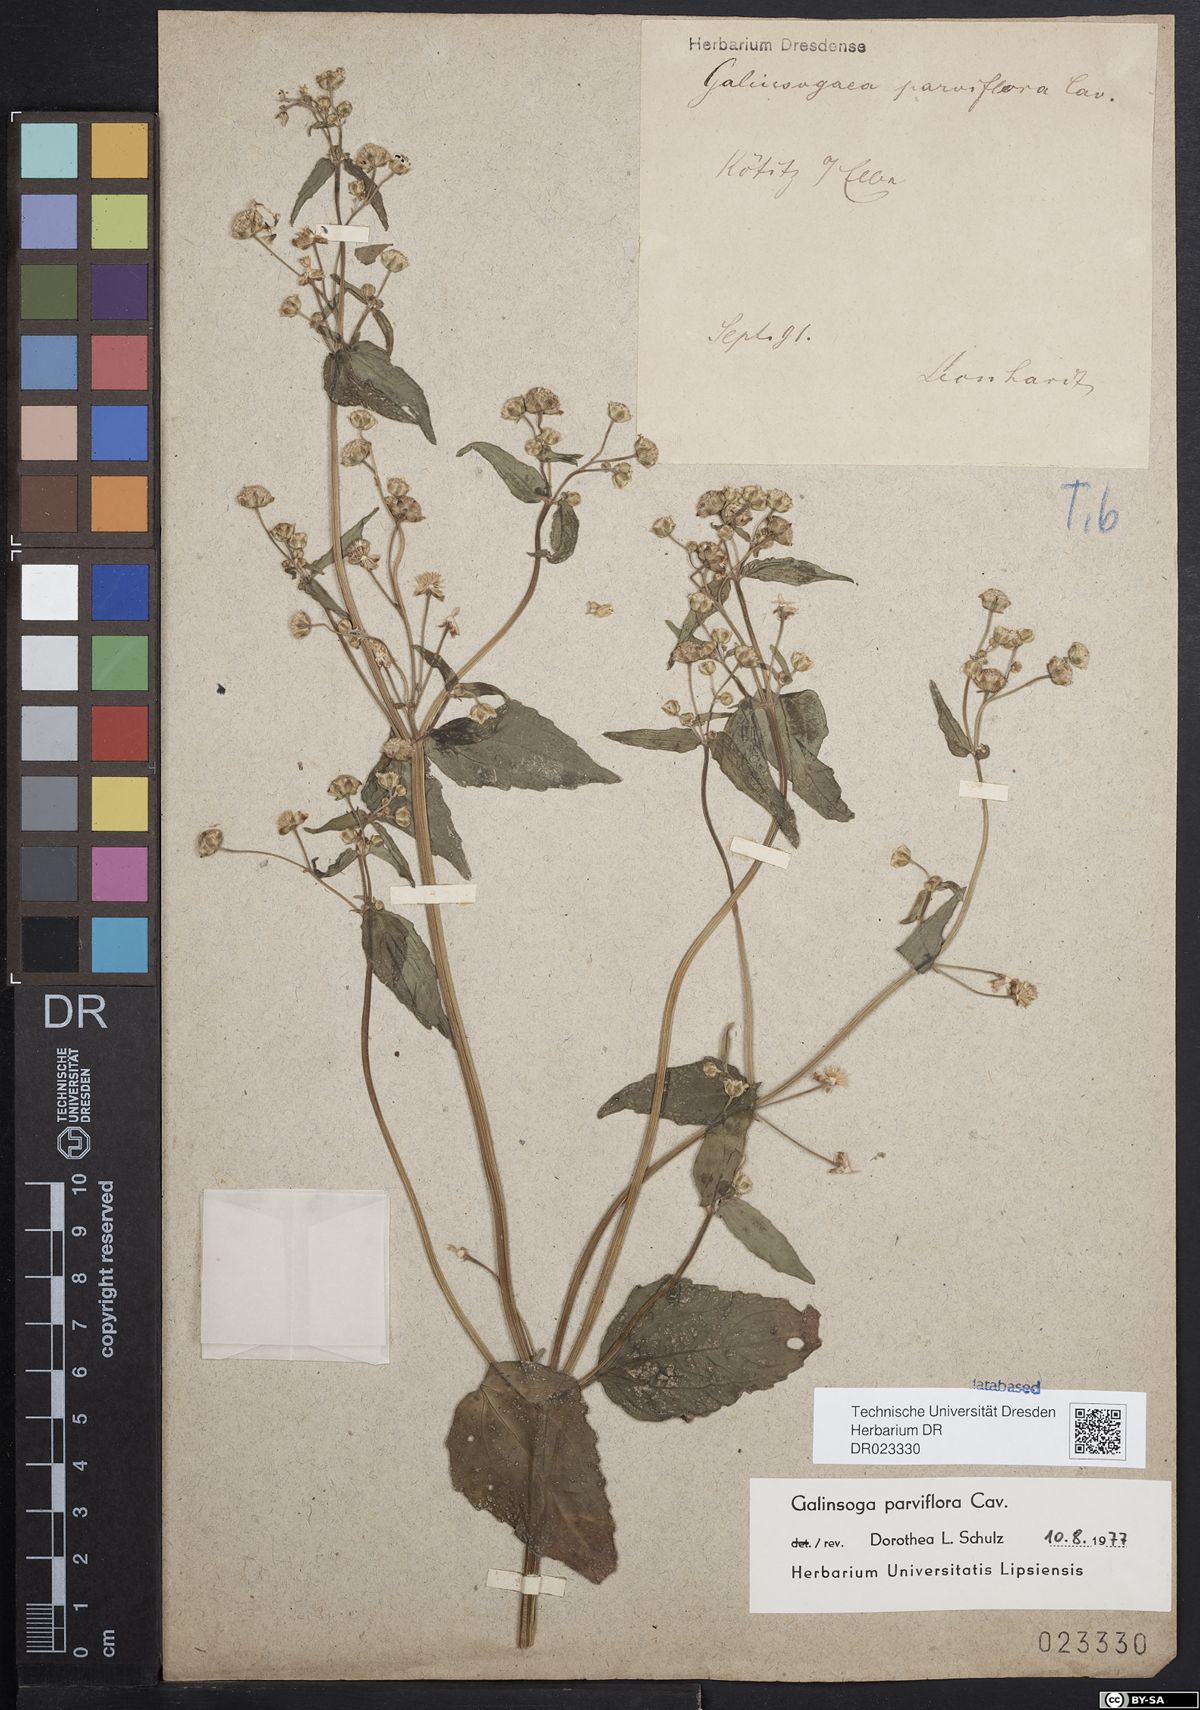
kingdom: Plantae
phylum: Tracheophyta
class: Magnoliopsida
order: Asterales
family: Asteraceae
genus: Galinsoga
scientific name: Galinsoga parviflora
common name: Gallant soldier
